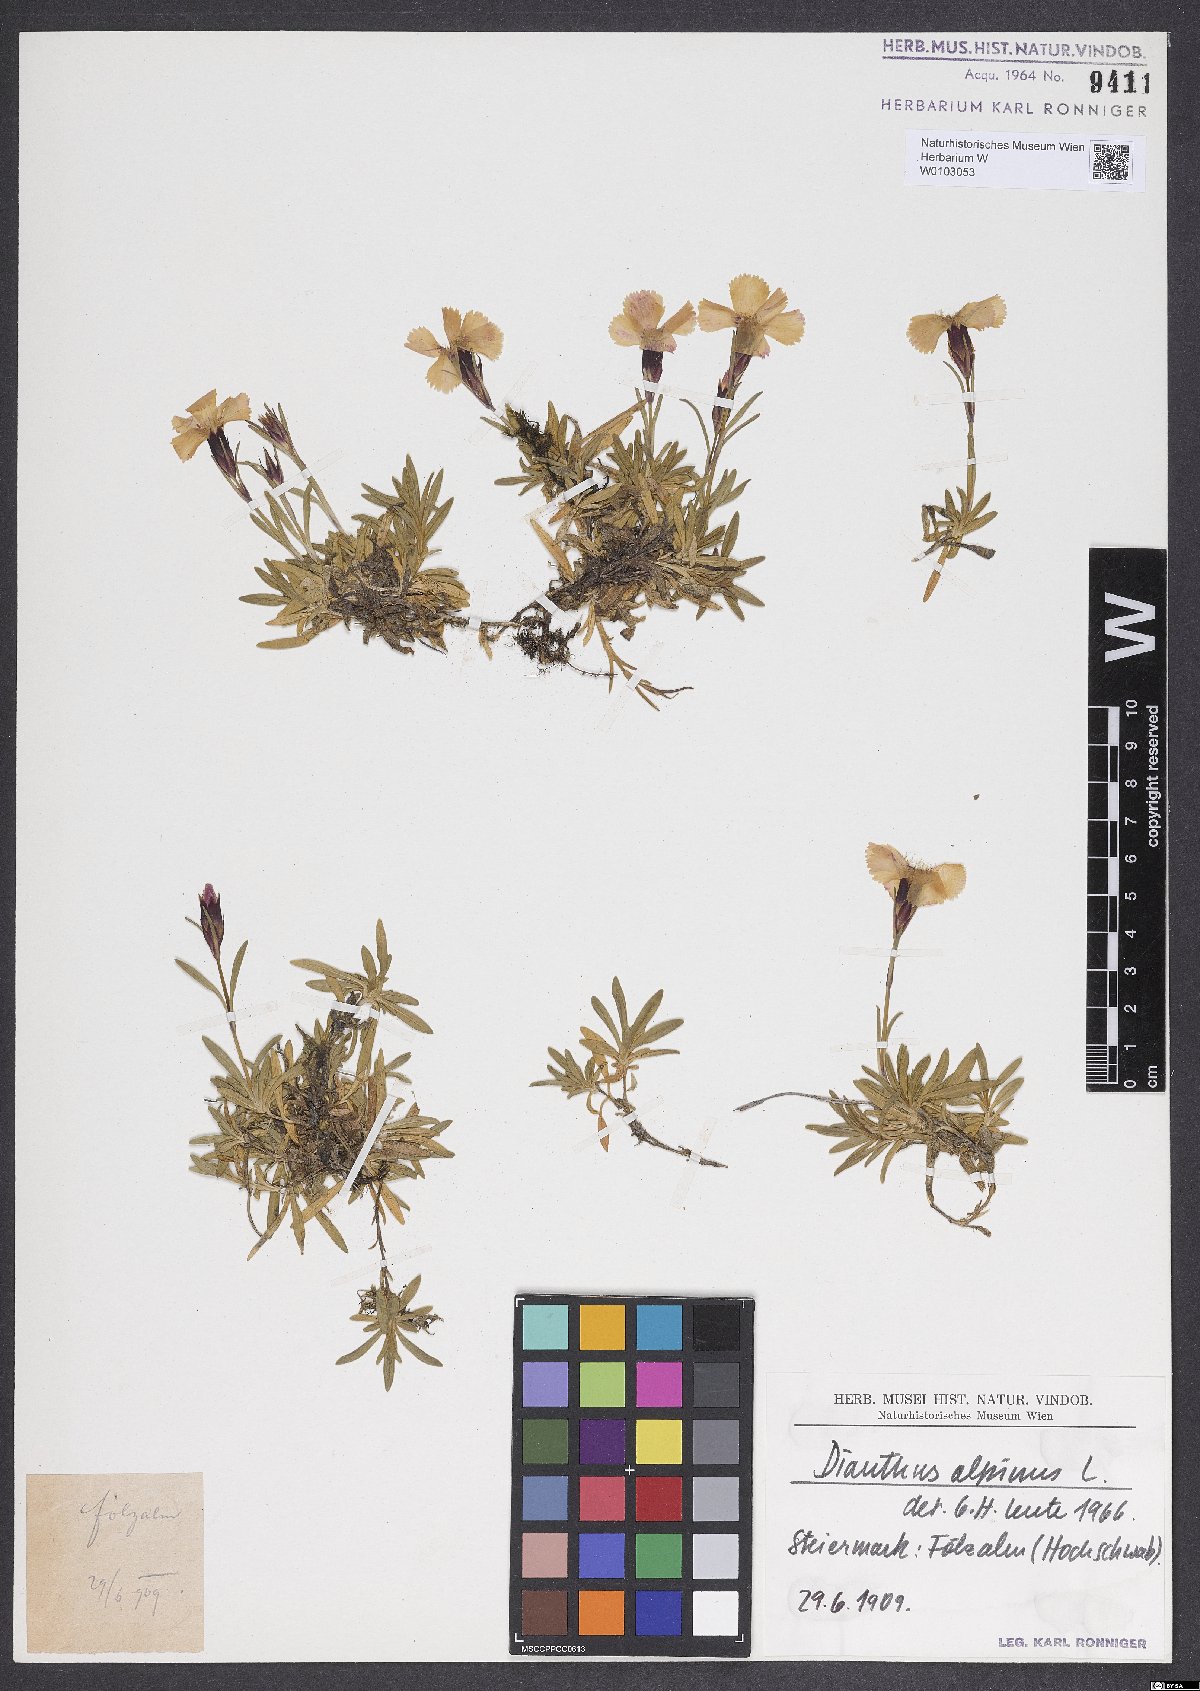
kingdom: Plantae
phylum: Tracheophyta
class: Magnoliopsida
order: Caryophyllales
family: Caryophyllaceae
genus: Dianthus
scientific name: Dianthus alpinus
